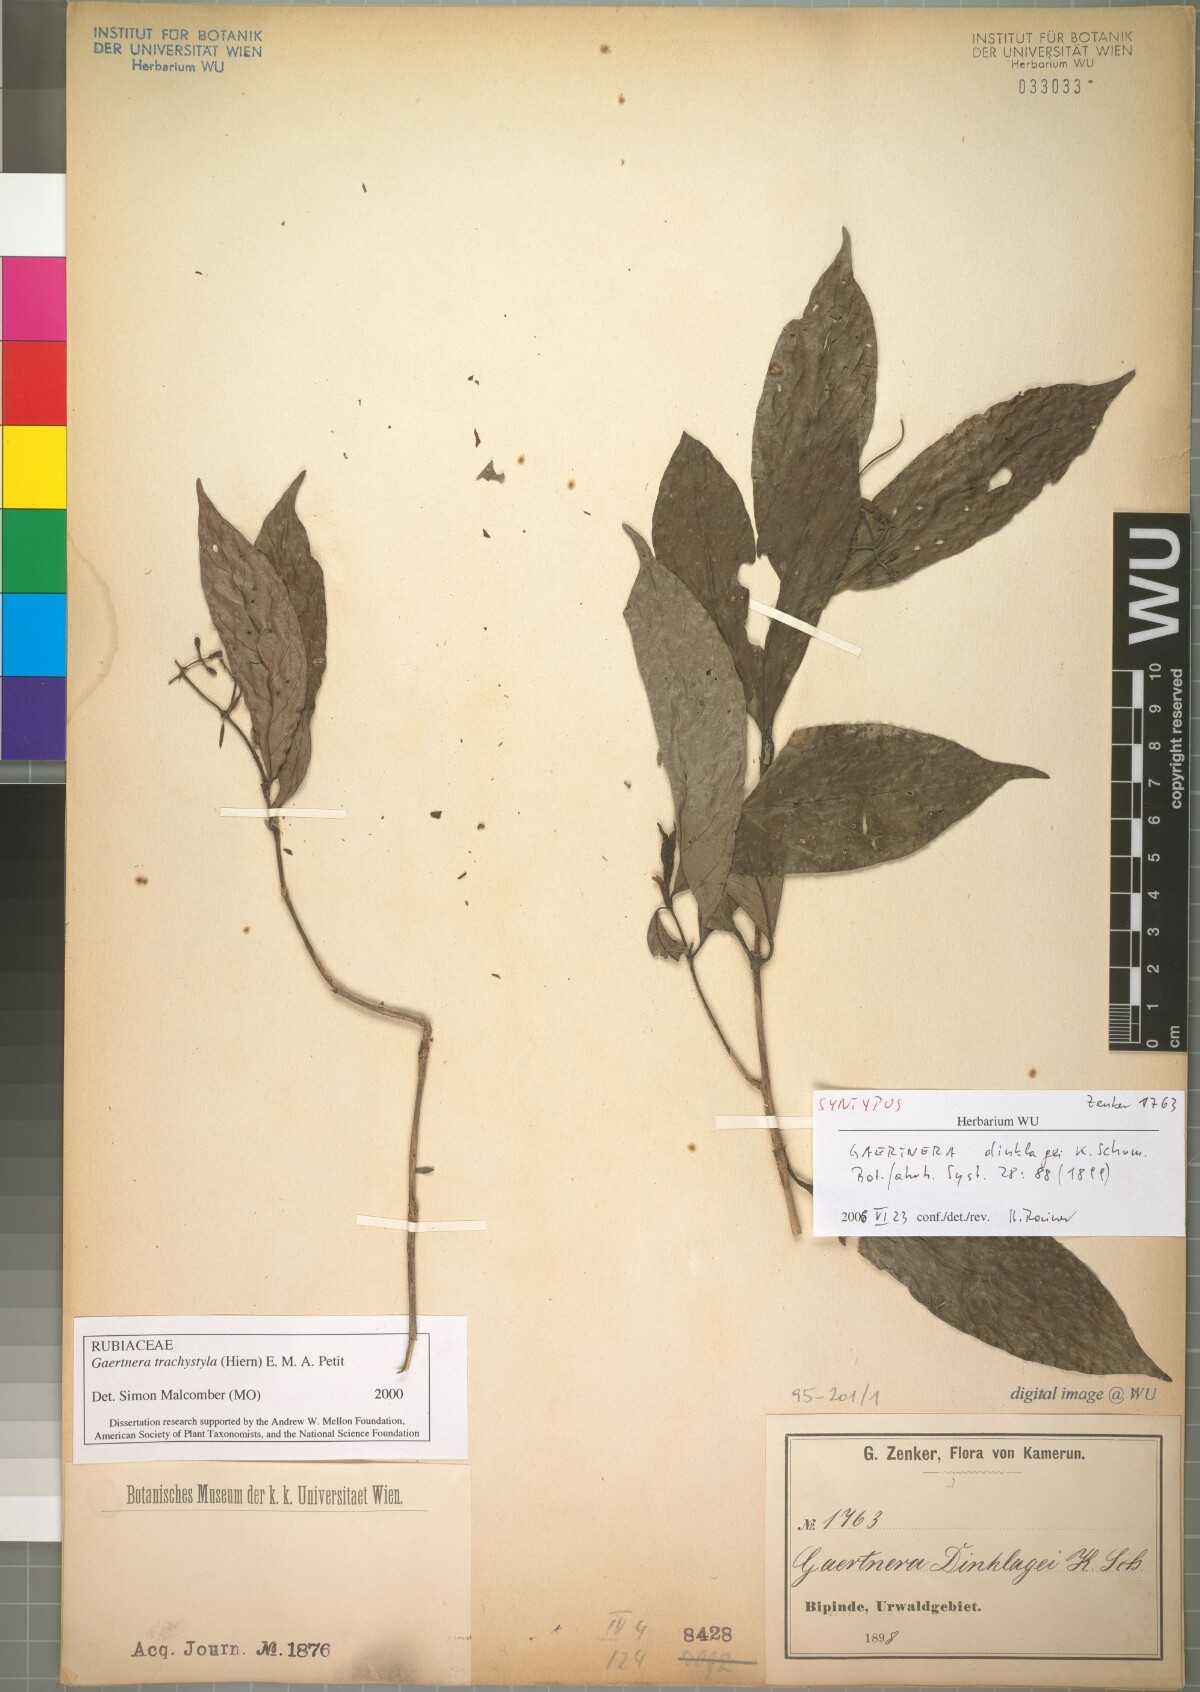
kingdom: Plantae
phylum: Tracheophyta
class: Magnoliopsida
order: Gentianales
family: Rubiaceae
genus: Gaertnera
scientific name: Gaertnera trachystyla
